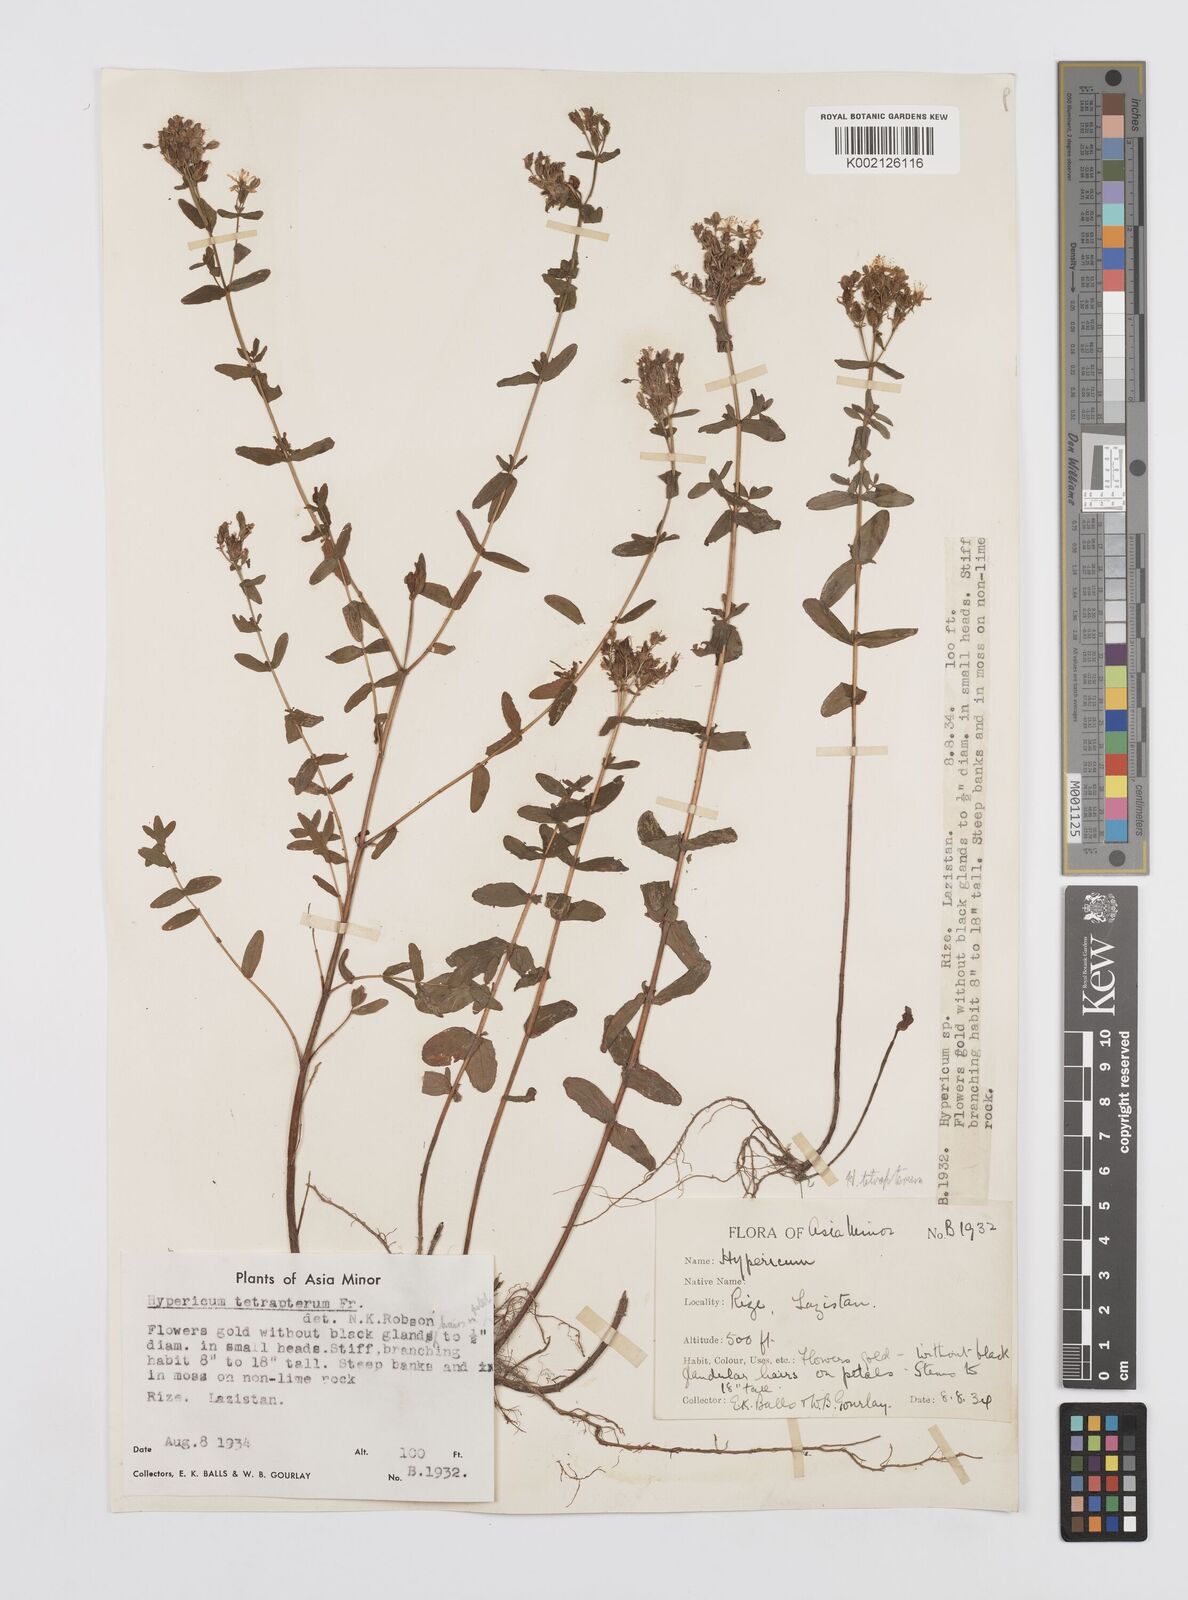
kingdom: Plantae
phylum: Tracheophyta
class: Magnoliopsida
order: Malpighiales
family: Hypericaceae
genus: Hypericum
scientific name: Hypericum tetrapterum
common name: Square-stalked st. john's-wort
